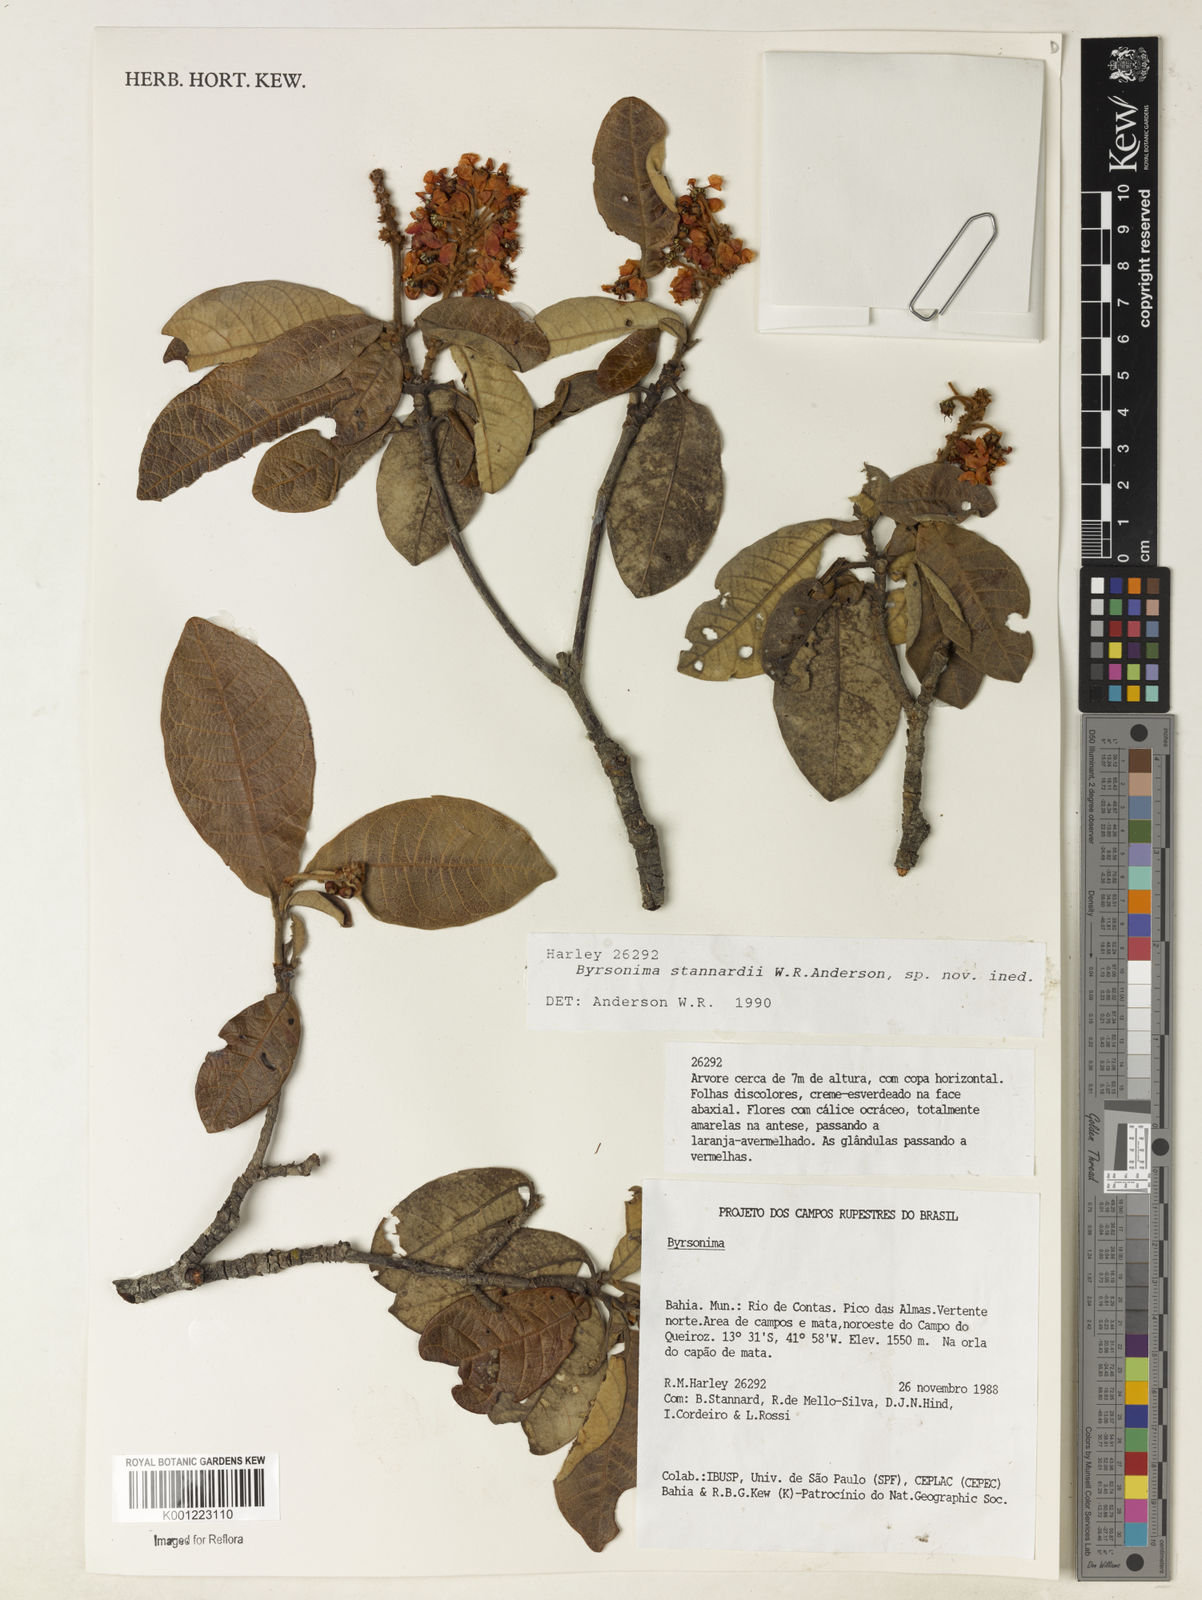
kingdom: Plantae
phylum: Tracheophyta
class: Magnoliopsida
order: Malpighiales
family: Malpighiaceae
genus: Byrsonima
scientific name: Byrsonima stannardii
